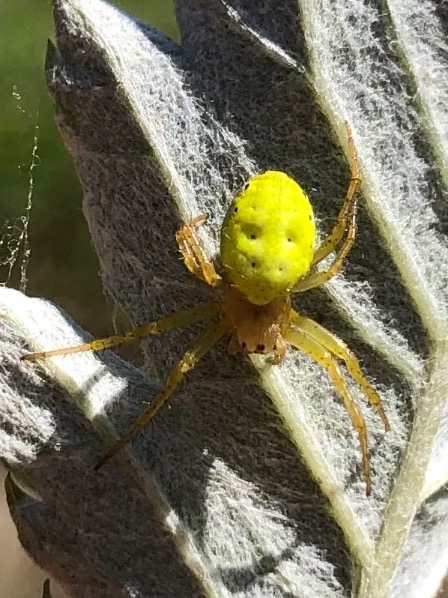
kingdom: Animalia
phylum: Arthropoda
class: Arachnida
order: Araneae
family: Araneidae
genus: Araniella
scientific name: Araniella
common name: Agurkeedderkopslægten
